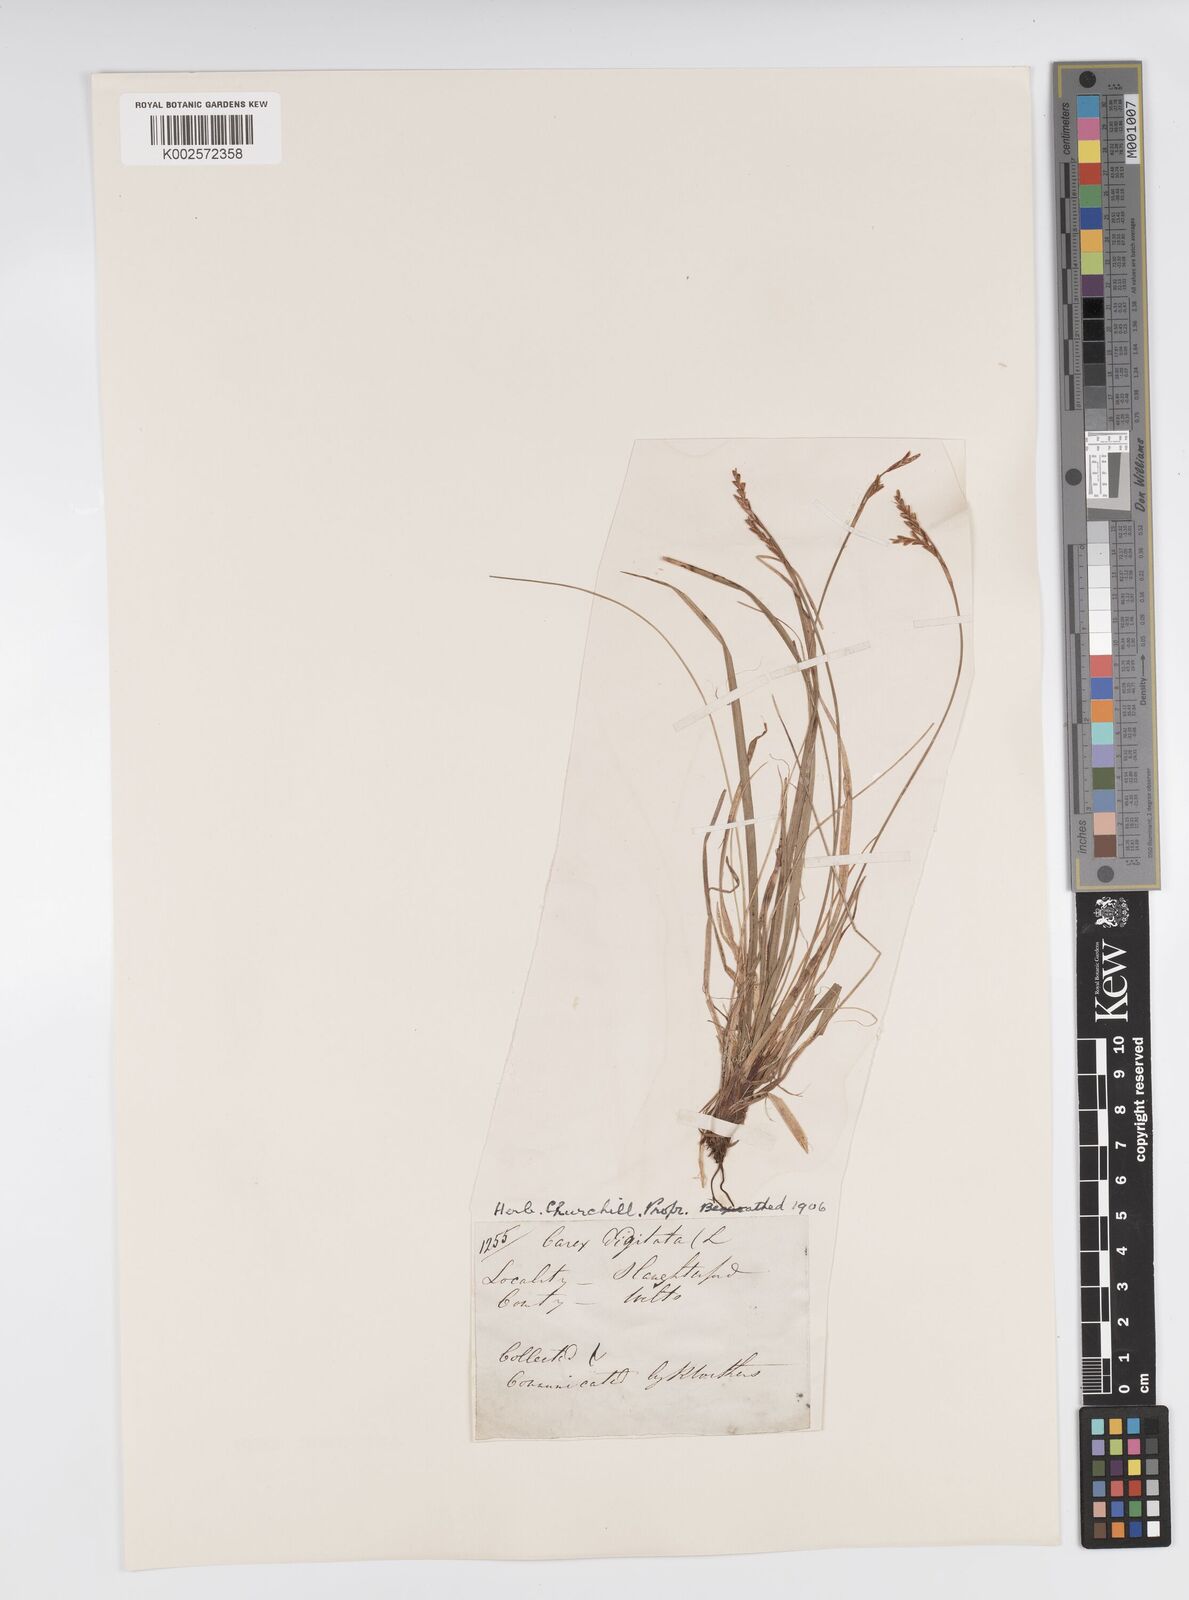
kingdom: Plantae
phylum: Tracheophyta
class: Liliopsida
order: Poales
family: Cyperaceae
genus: Carex
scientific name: Carex digitata
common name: Fingered sedge
